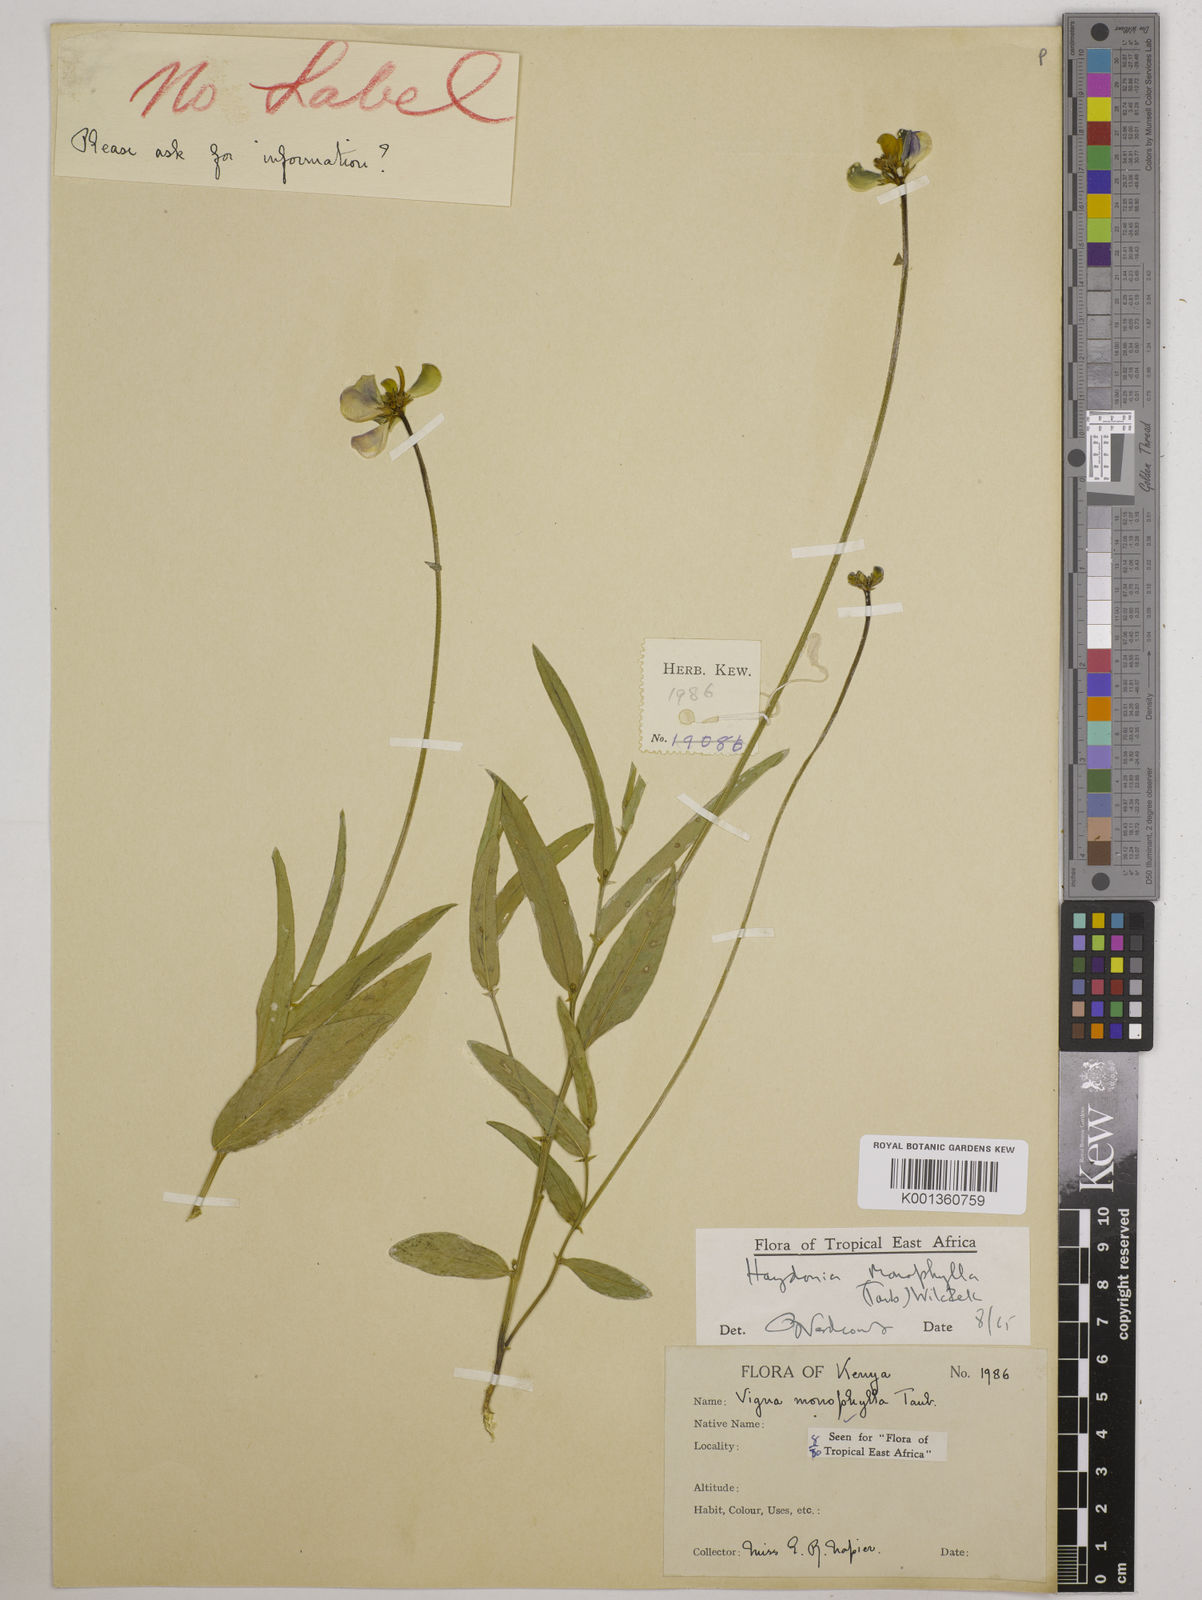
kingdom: Plantae
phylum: Tracheophyta
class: Magnoliopsida
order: Fabales
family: Fabaceae
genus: Vigna
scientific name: Vigna monophylla
